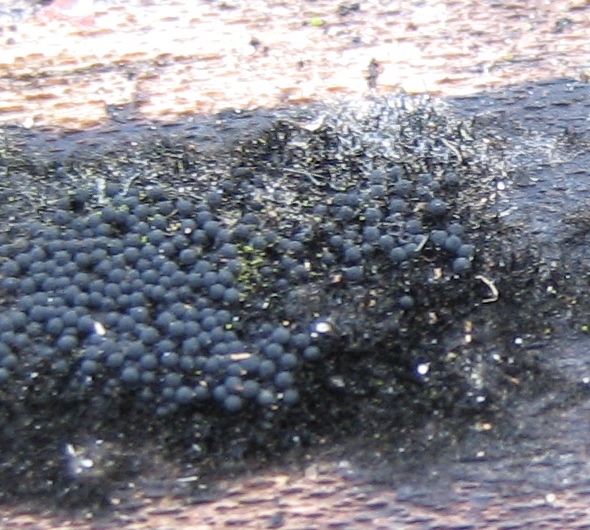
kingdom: Fungi
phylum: Ascomycota
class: Sordariomycetes
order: Coronophorales
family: Chaetosphaerellaceae
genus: Chaetosphaerella
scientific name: Chaetosphaerella phaeostroma
